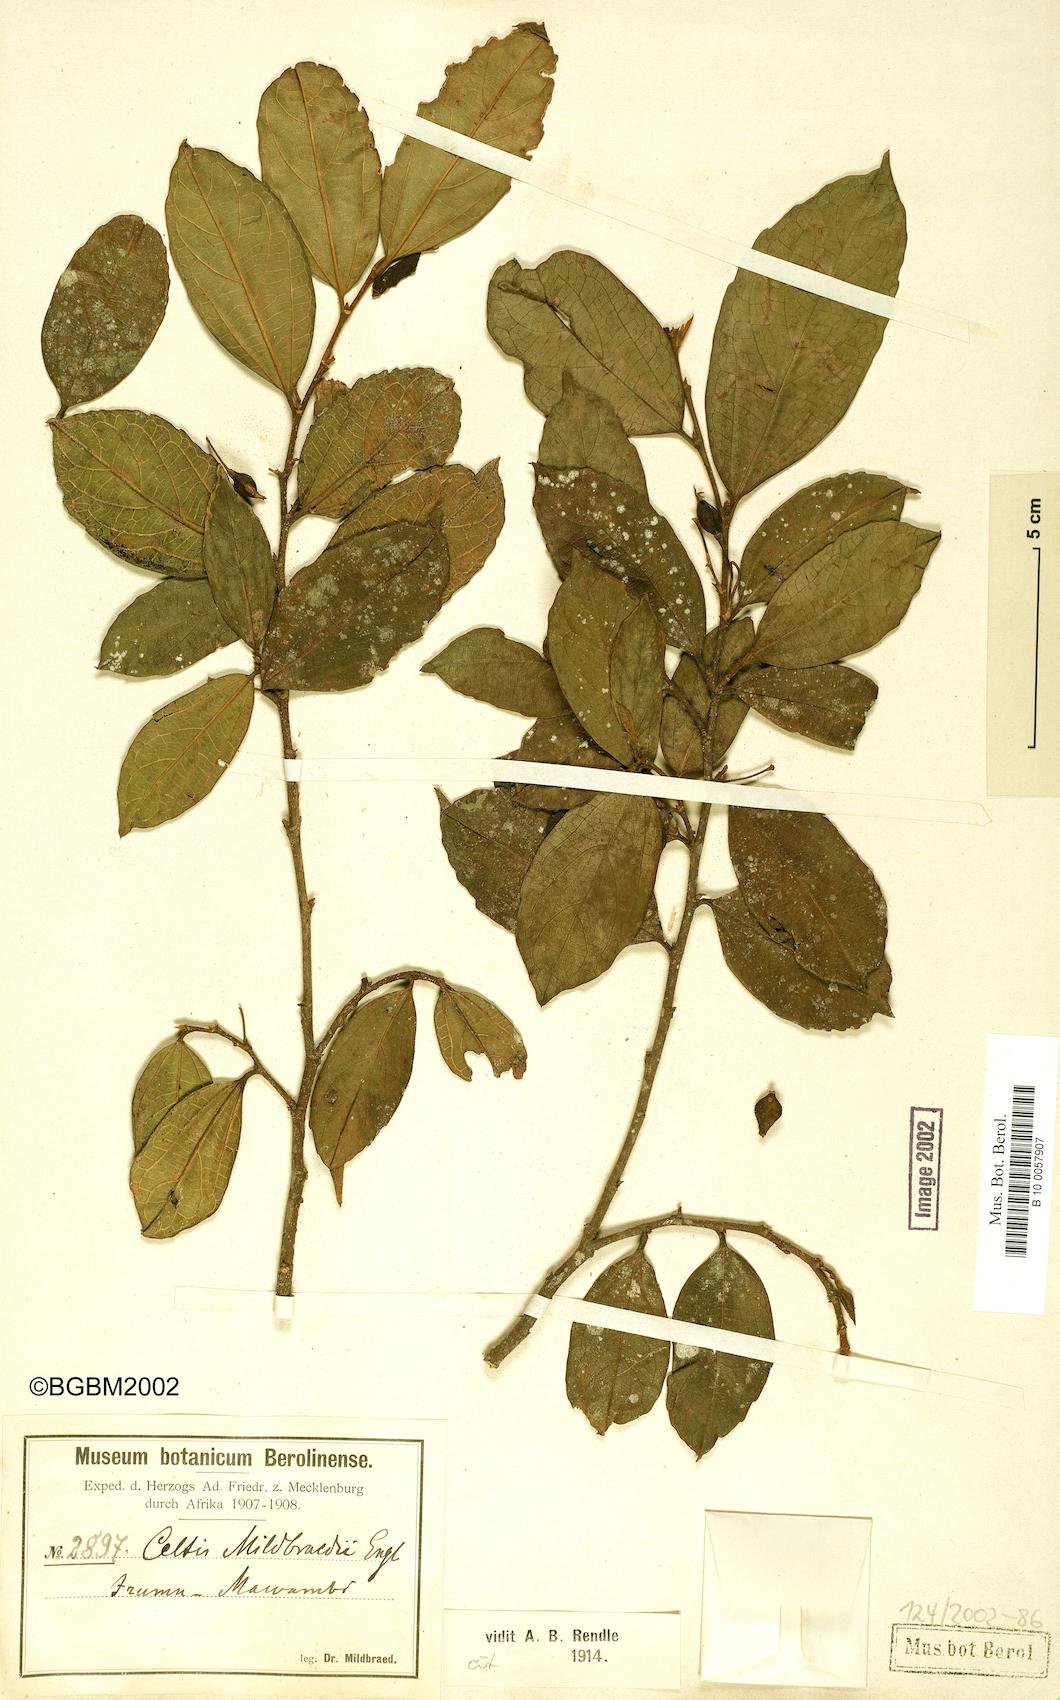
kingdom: Plantae
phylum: Tracheophyta
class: Magnoliopsida
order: Rosales
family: Cannabaceae
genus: Celtis
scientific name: Celtis mildbraedii
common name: Red-fruited stinkwood
